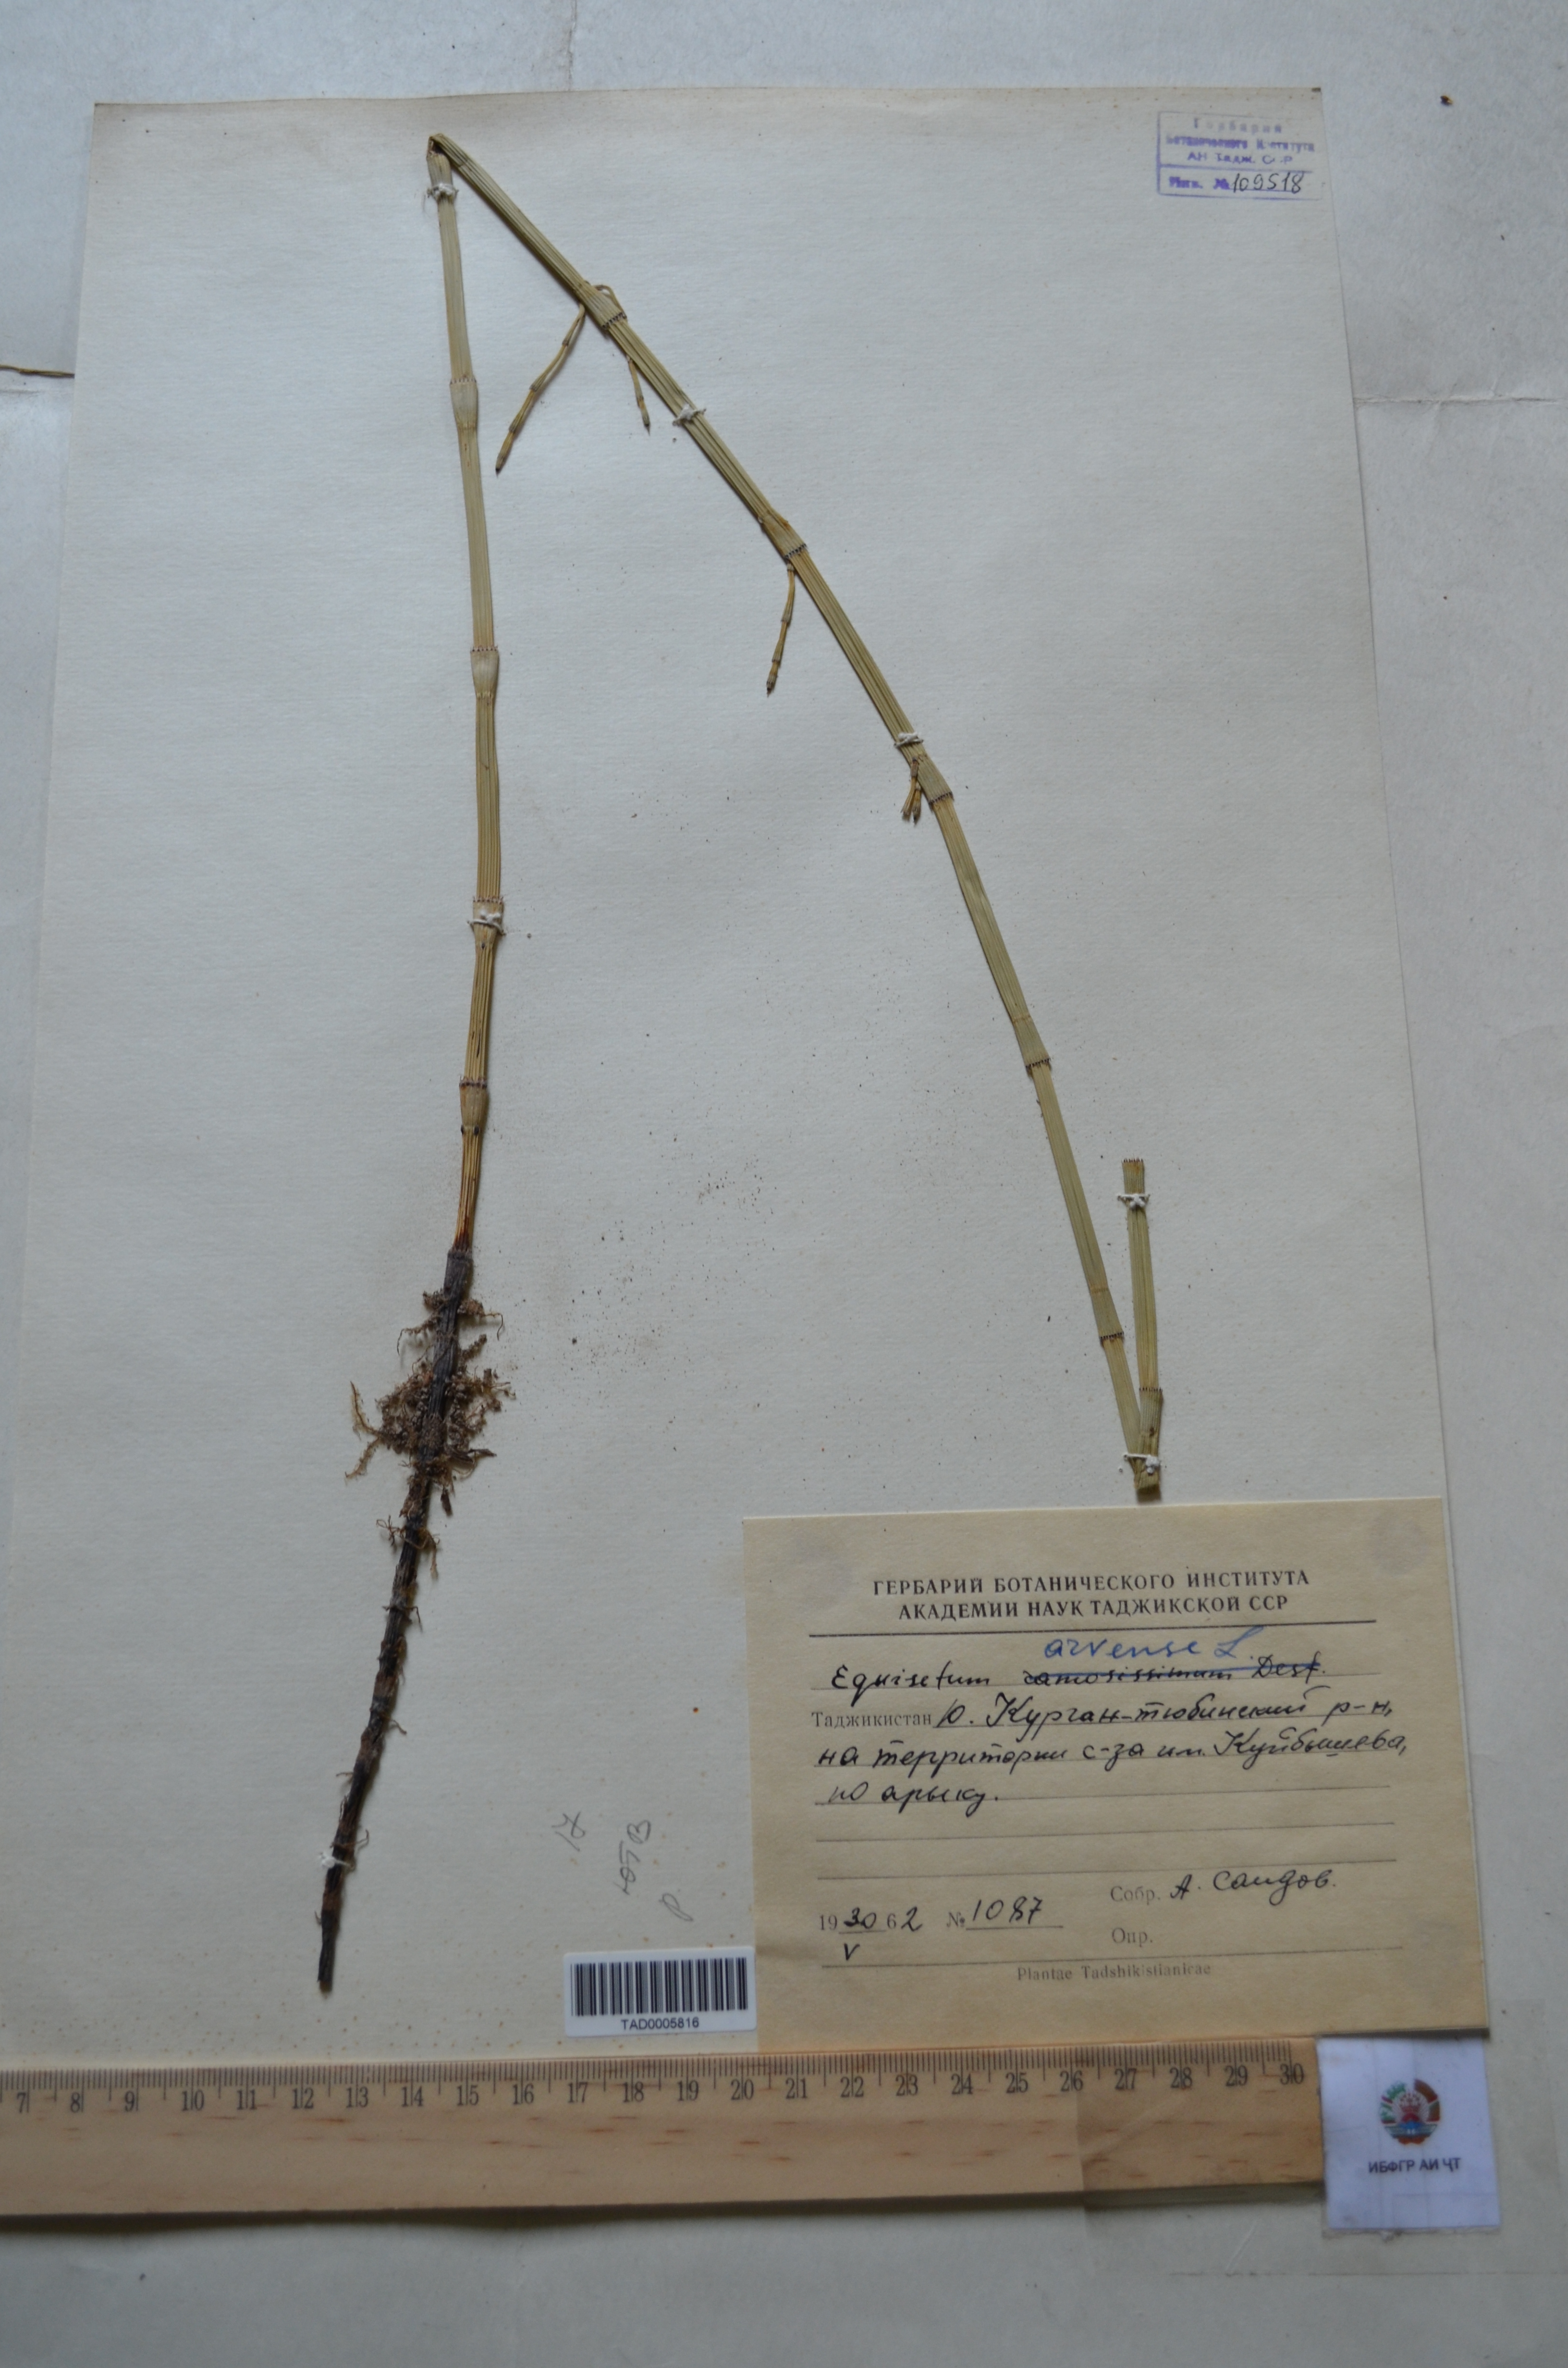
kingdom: Plantae
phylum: Tracheophyta
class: Polypodiopsida
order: Equisetales
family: Equisetaceae
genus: Equisetum
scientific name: Equisetum arvense
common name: Field horsetail
